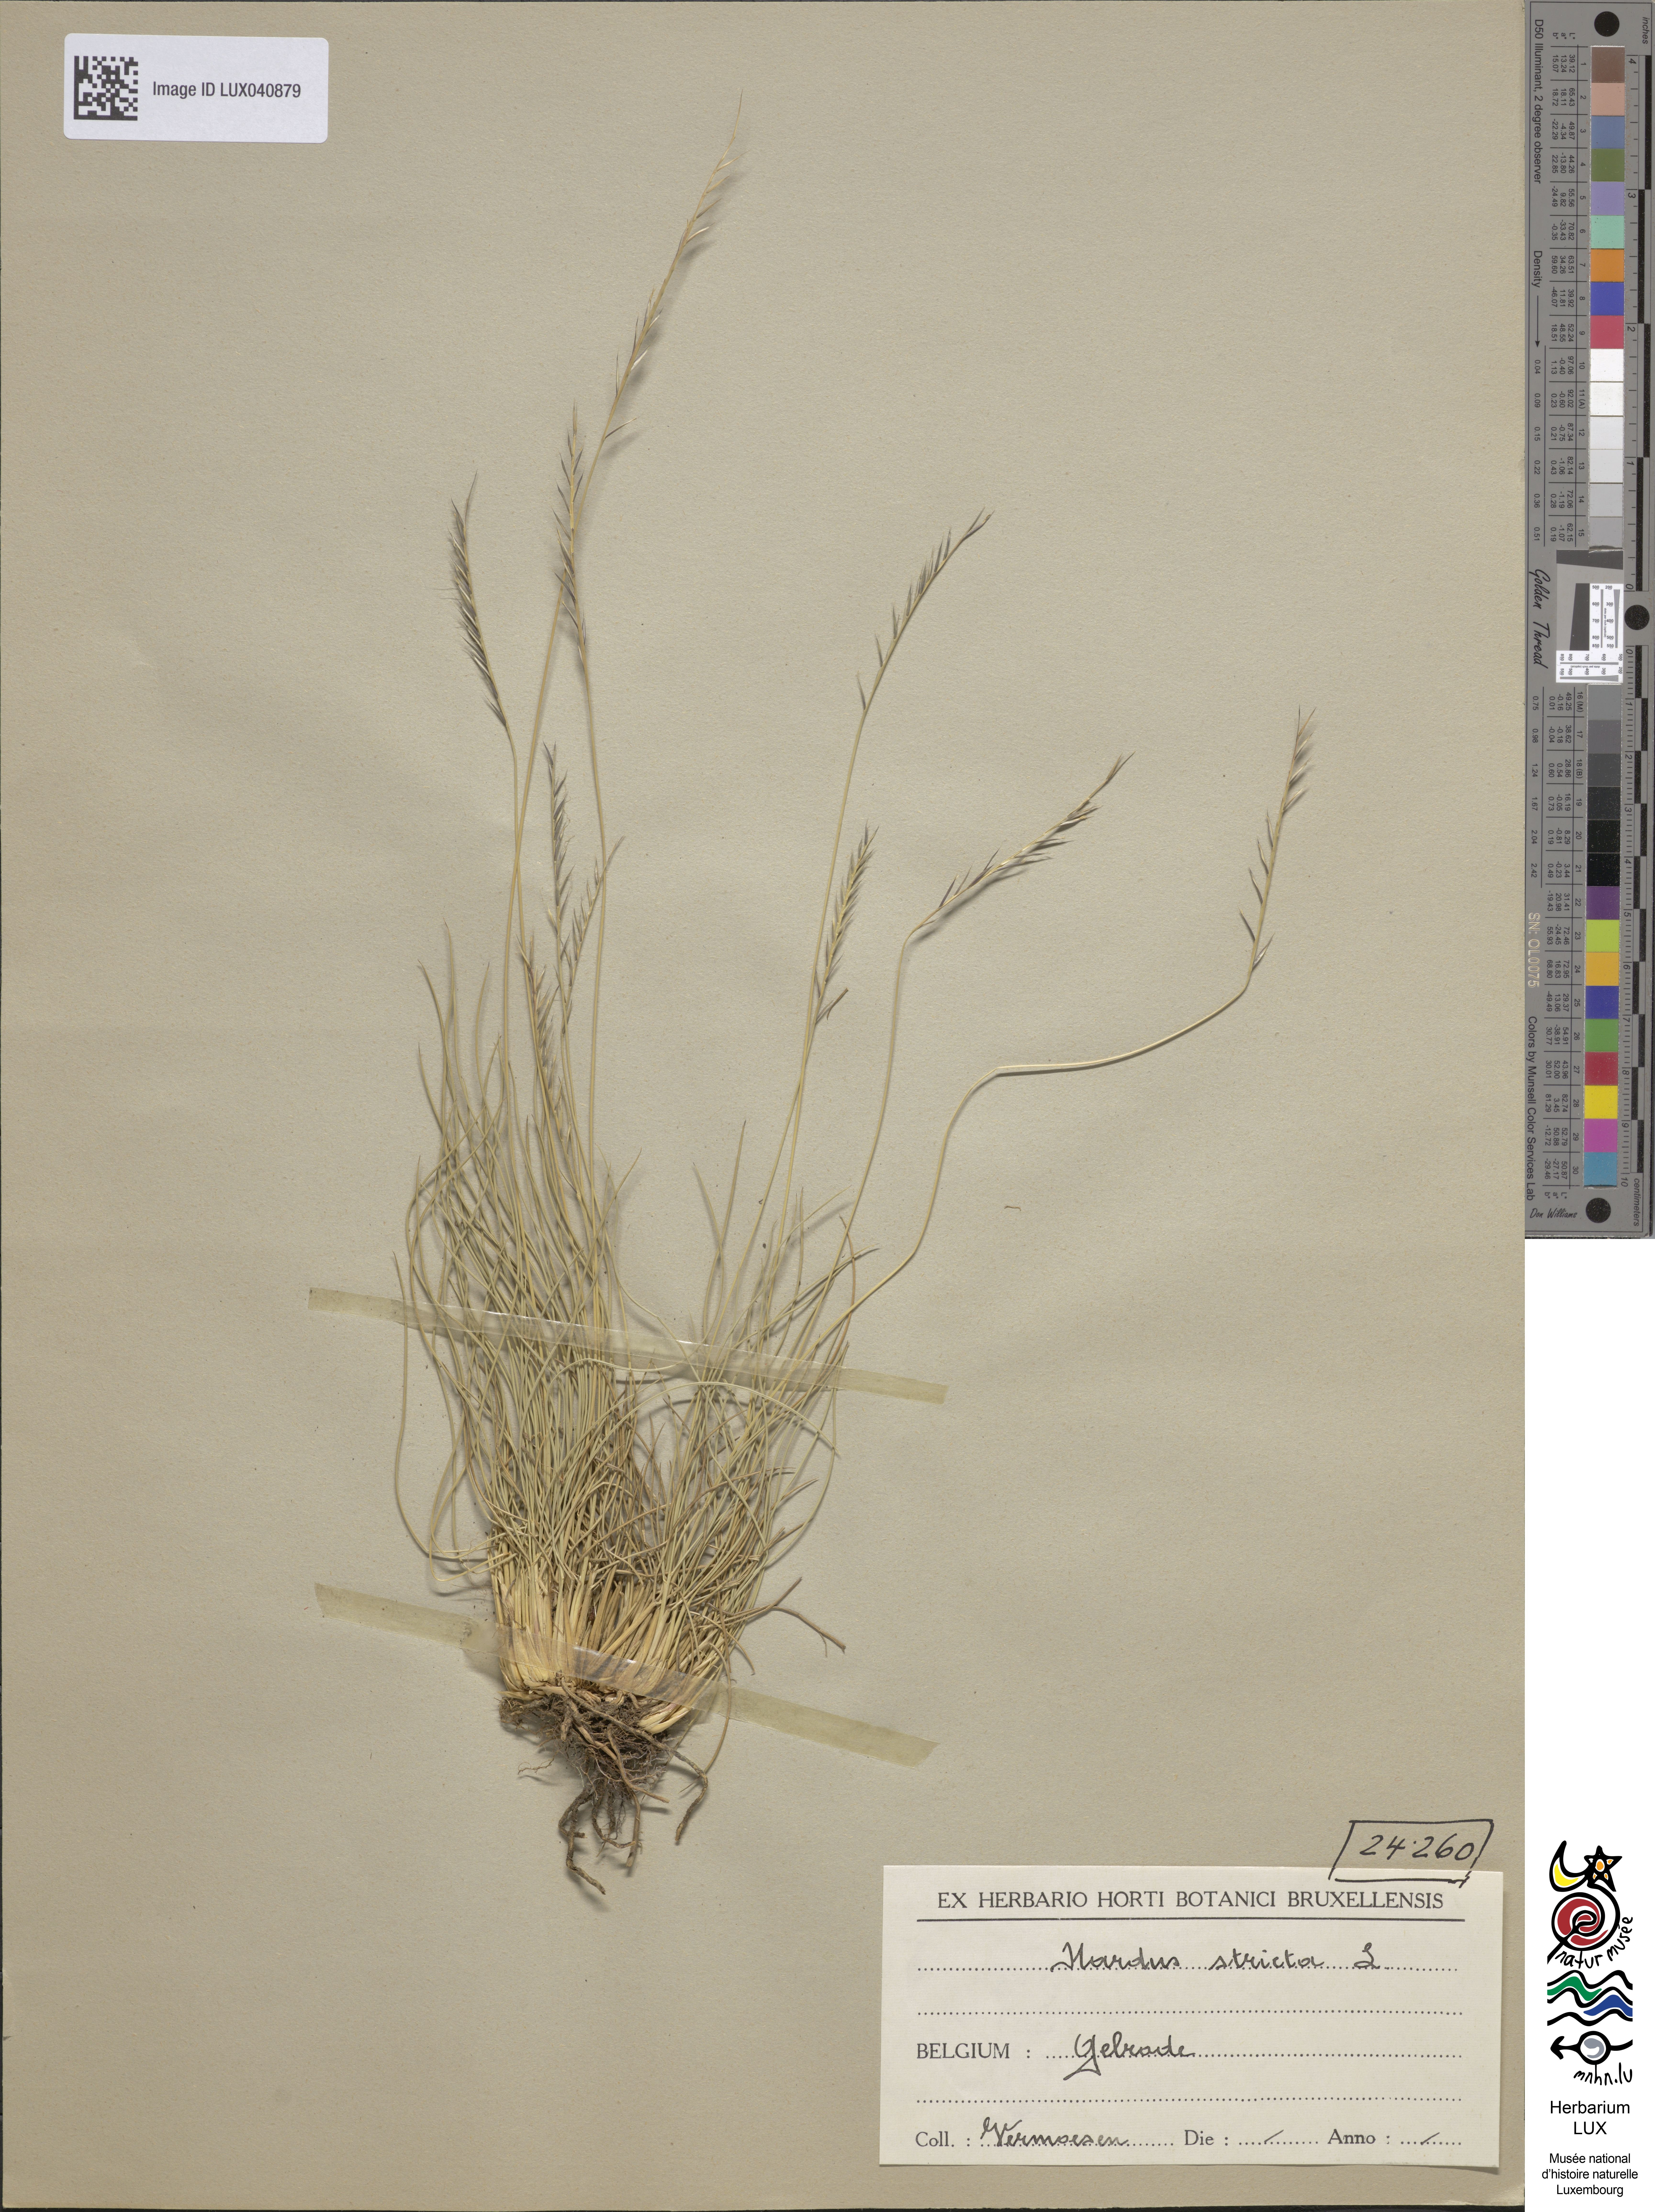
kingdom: Plantae
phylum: Tracheophyta
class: Liliopsida
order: Poales
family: Poaceae
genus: Nardus
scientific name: Nardus stricta
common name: Mat-grass
